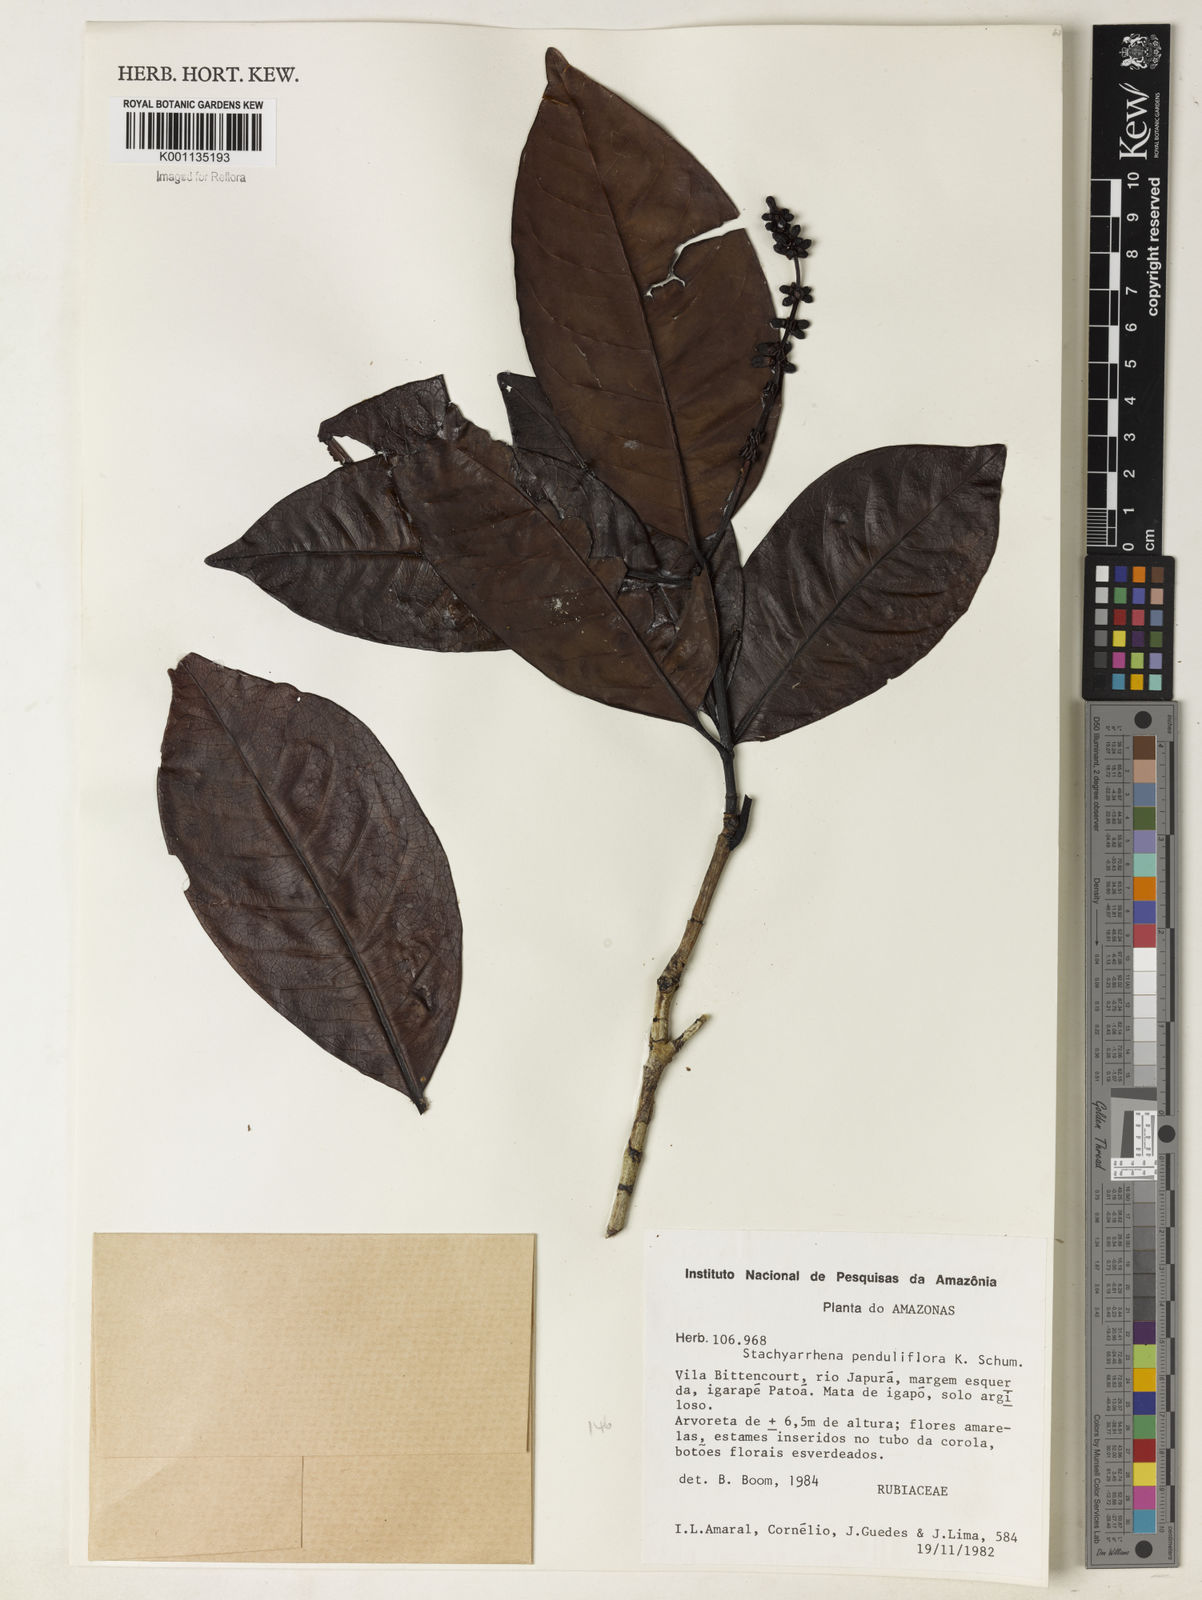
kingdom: Plantae
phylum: Tracheophyta
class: Magnoliopsida
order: Gentianales
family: Rubiaceae
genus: Stachyarrhena
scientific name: Stachyarrhena penduliflora
